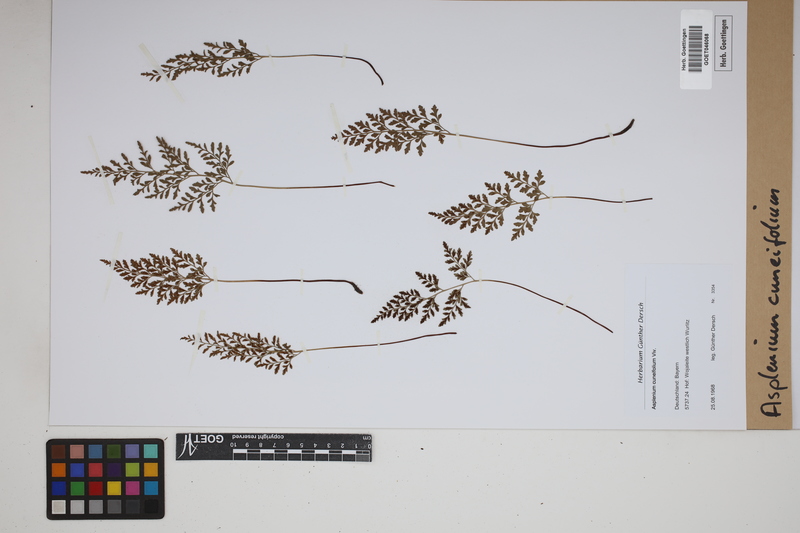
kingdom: Plantae
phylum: Tracheophyta
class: Polypodiopsida
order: Polypodiales
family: Aspleniaceae
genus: Asplenium
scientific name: Asplenium cuneifolium
